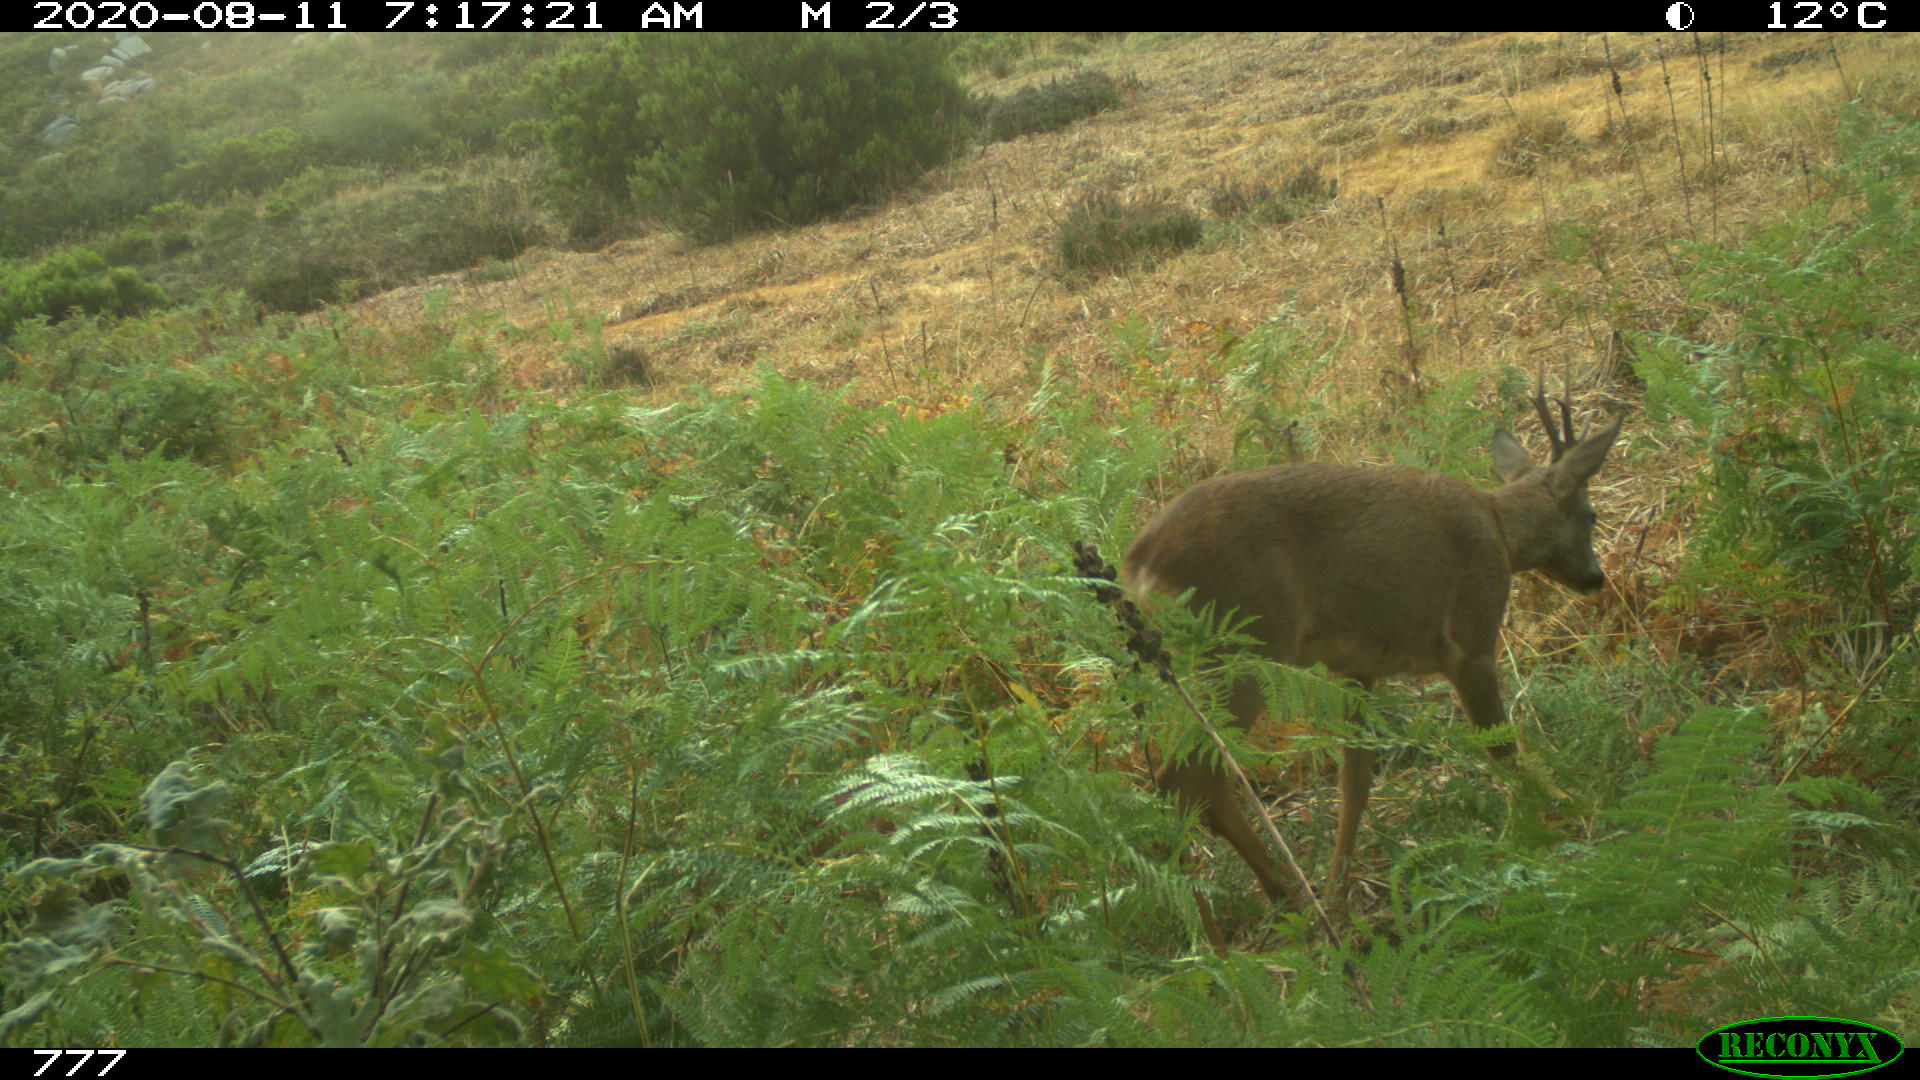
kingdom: Animalia
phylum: Chordata
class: Mammalia
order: Artiodactyla
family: Cervidae
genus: Capreolus
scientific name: Capreolus capreolus
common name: Western roe deer
